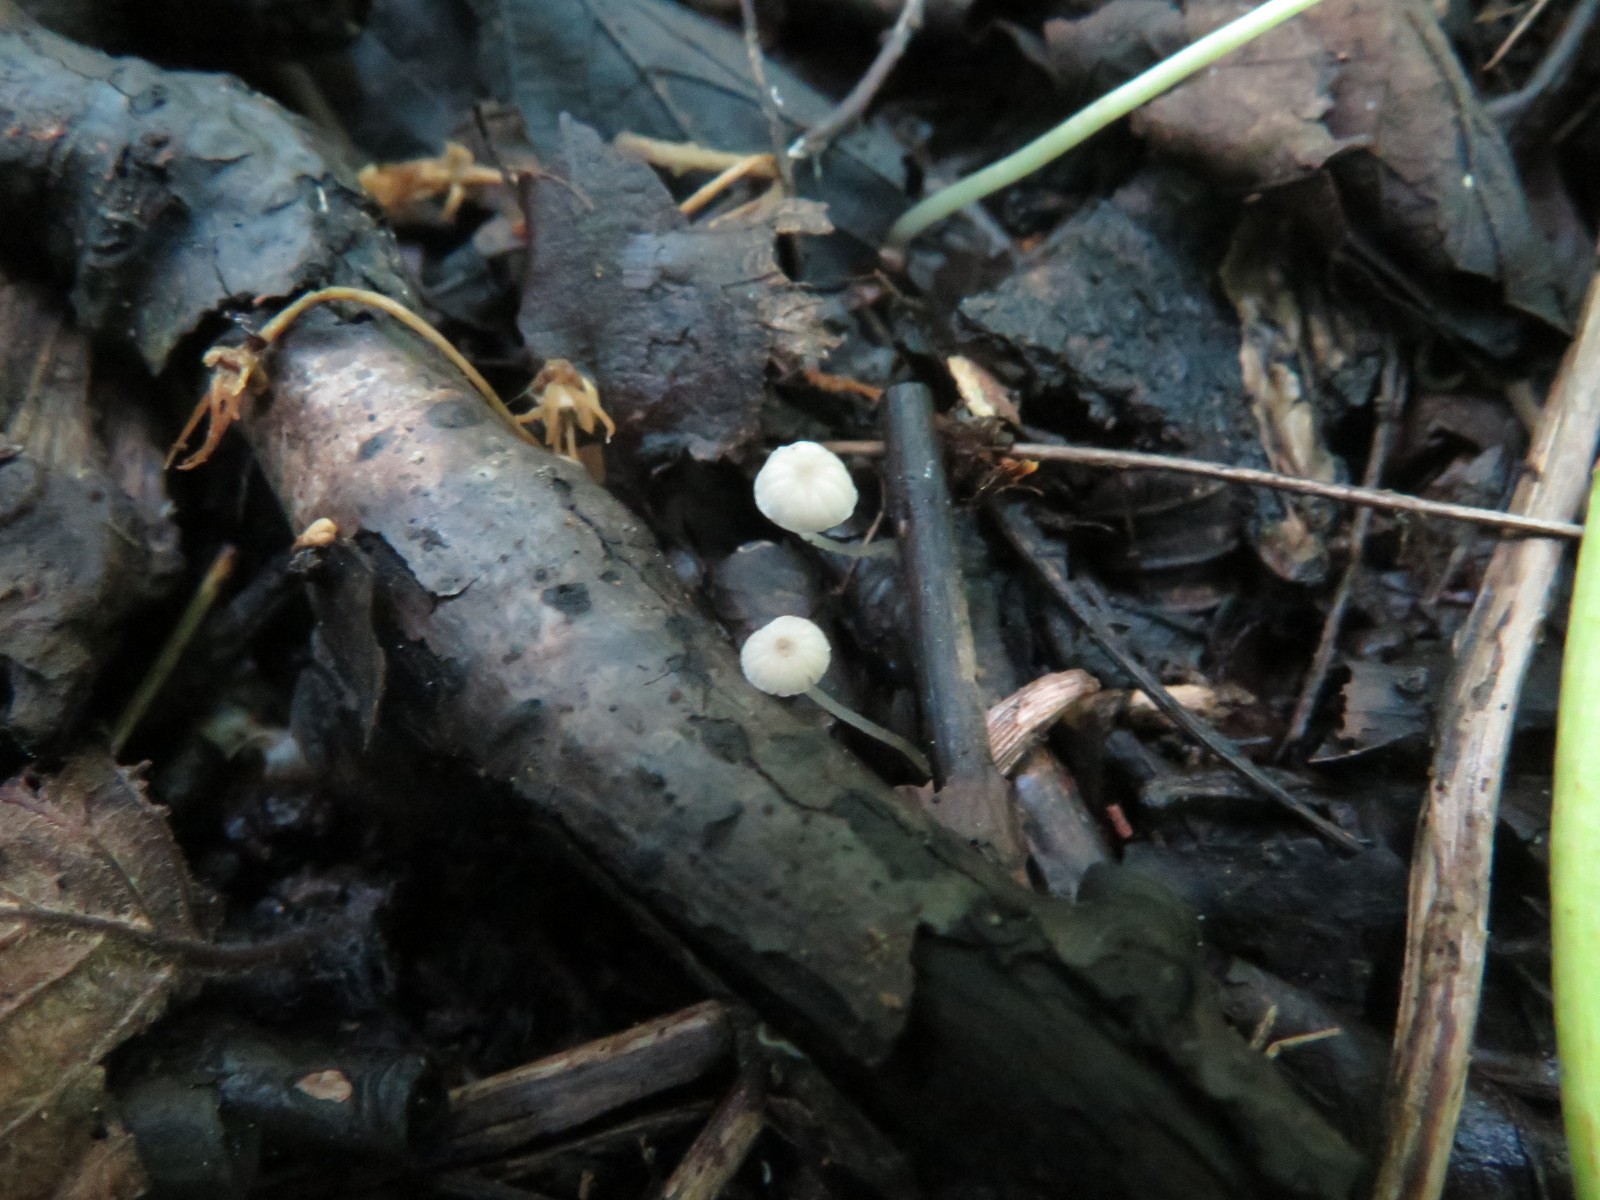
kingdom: Fungi
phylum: Basidiomycota
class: Agaricomycetes
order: Agaricales
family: Porotheleaceae
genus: Phloeomana
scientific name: Phloeomana speirea
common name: kvist-huesvamp
